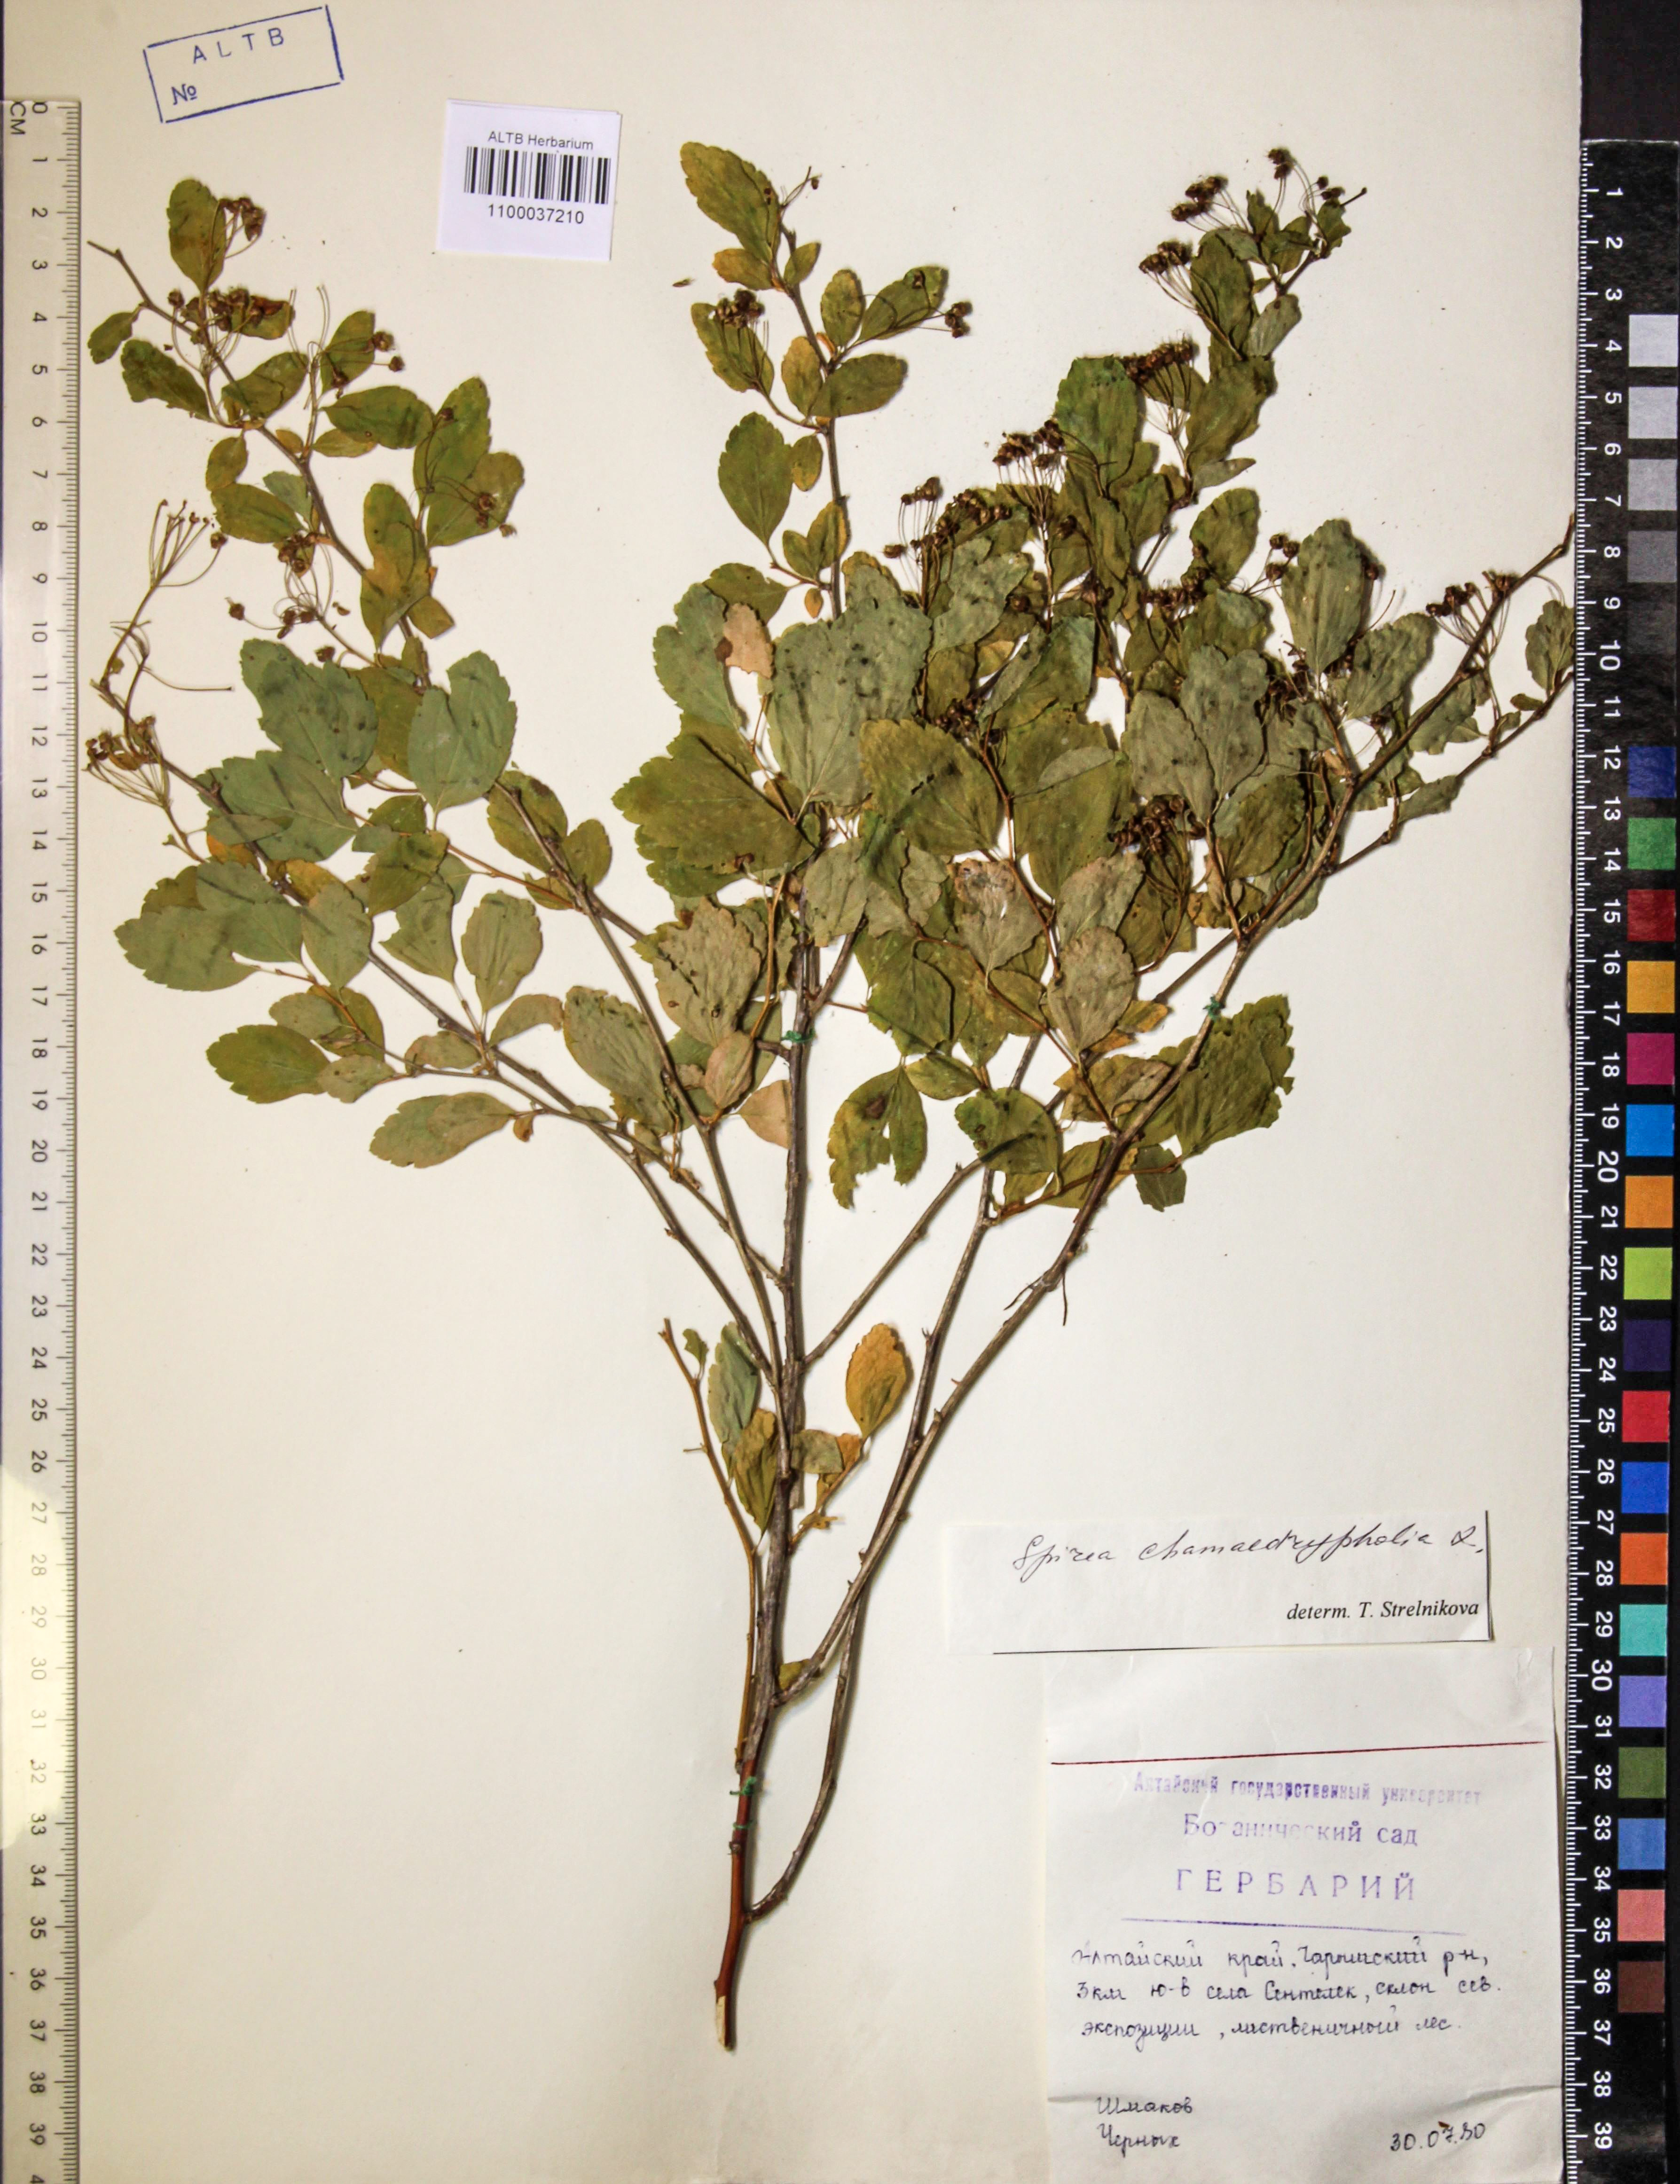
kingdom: Plantae
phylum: Tracheophyta
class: Magnoliopsida
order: Rosales
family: Rosaceae
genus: Spiraea
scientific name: Spiraea chamaedryfolia
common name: Elm-leaved spiraea
